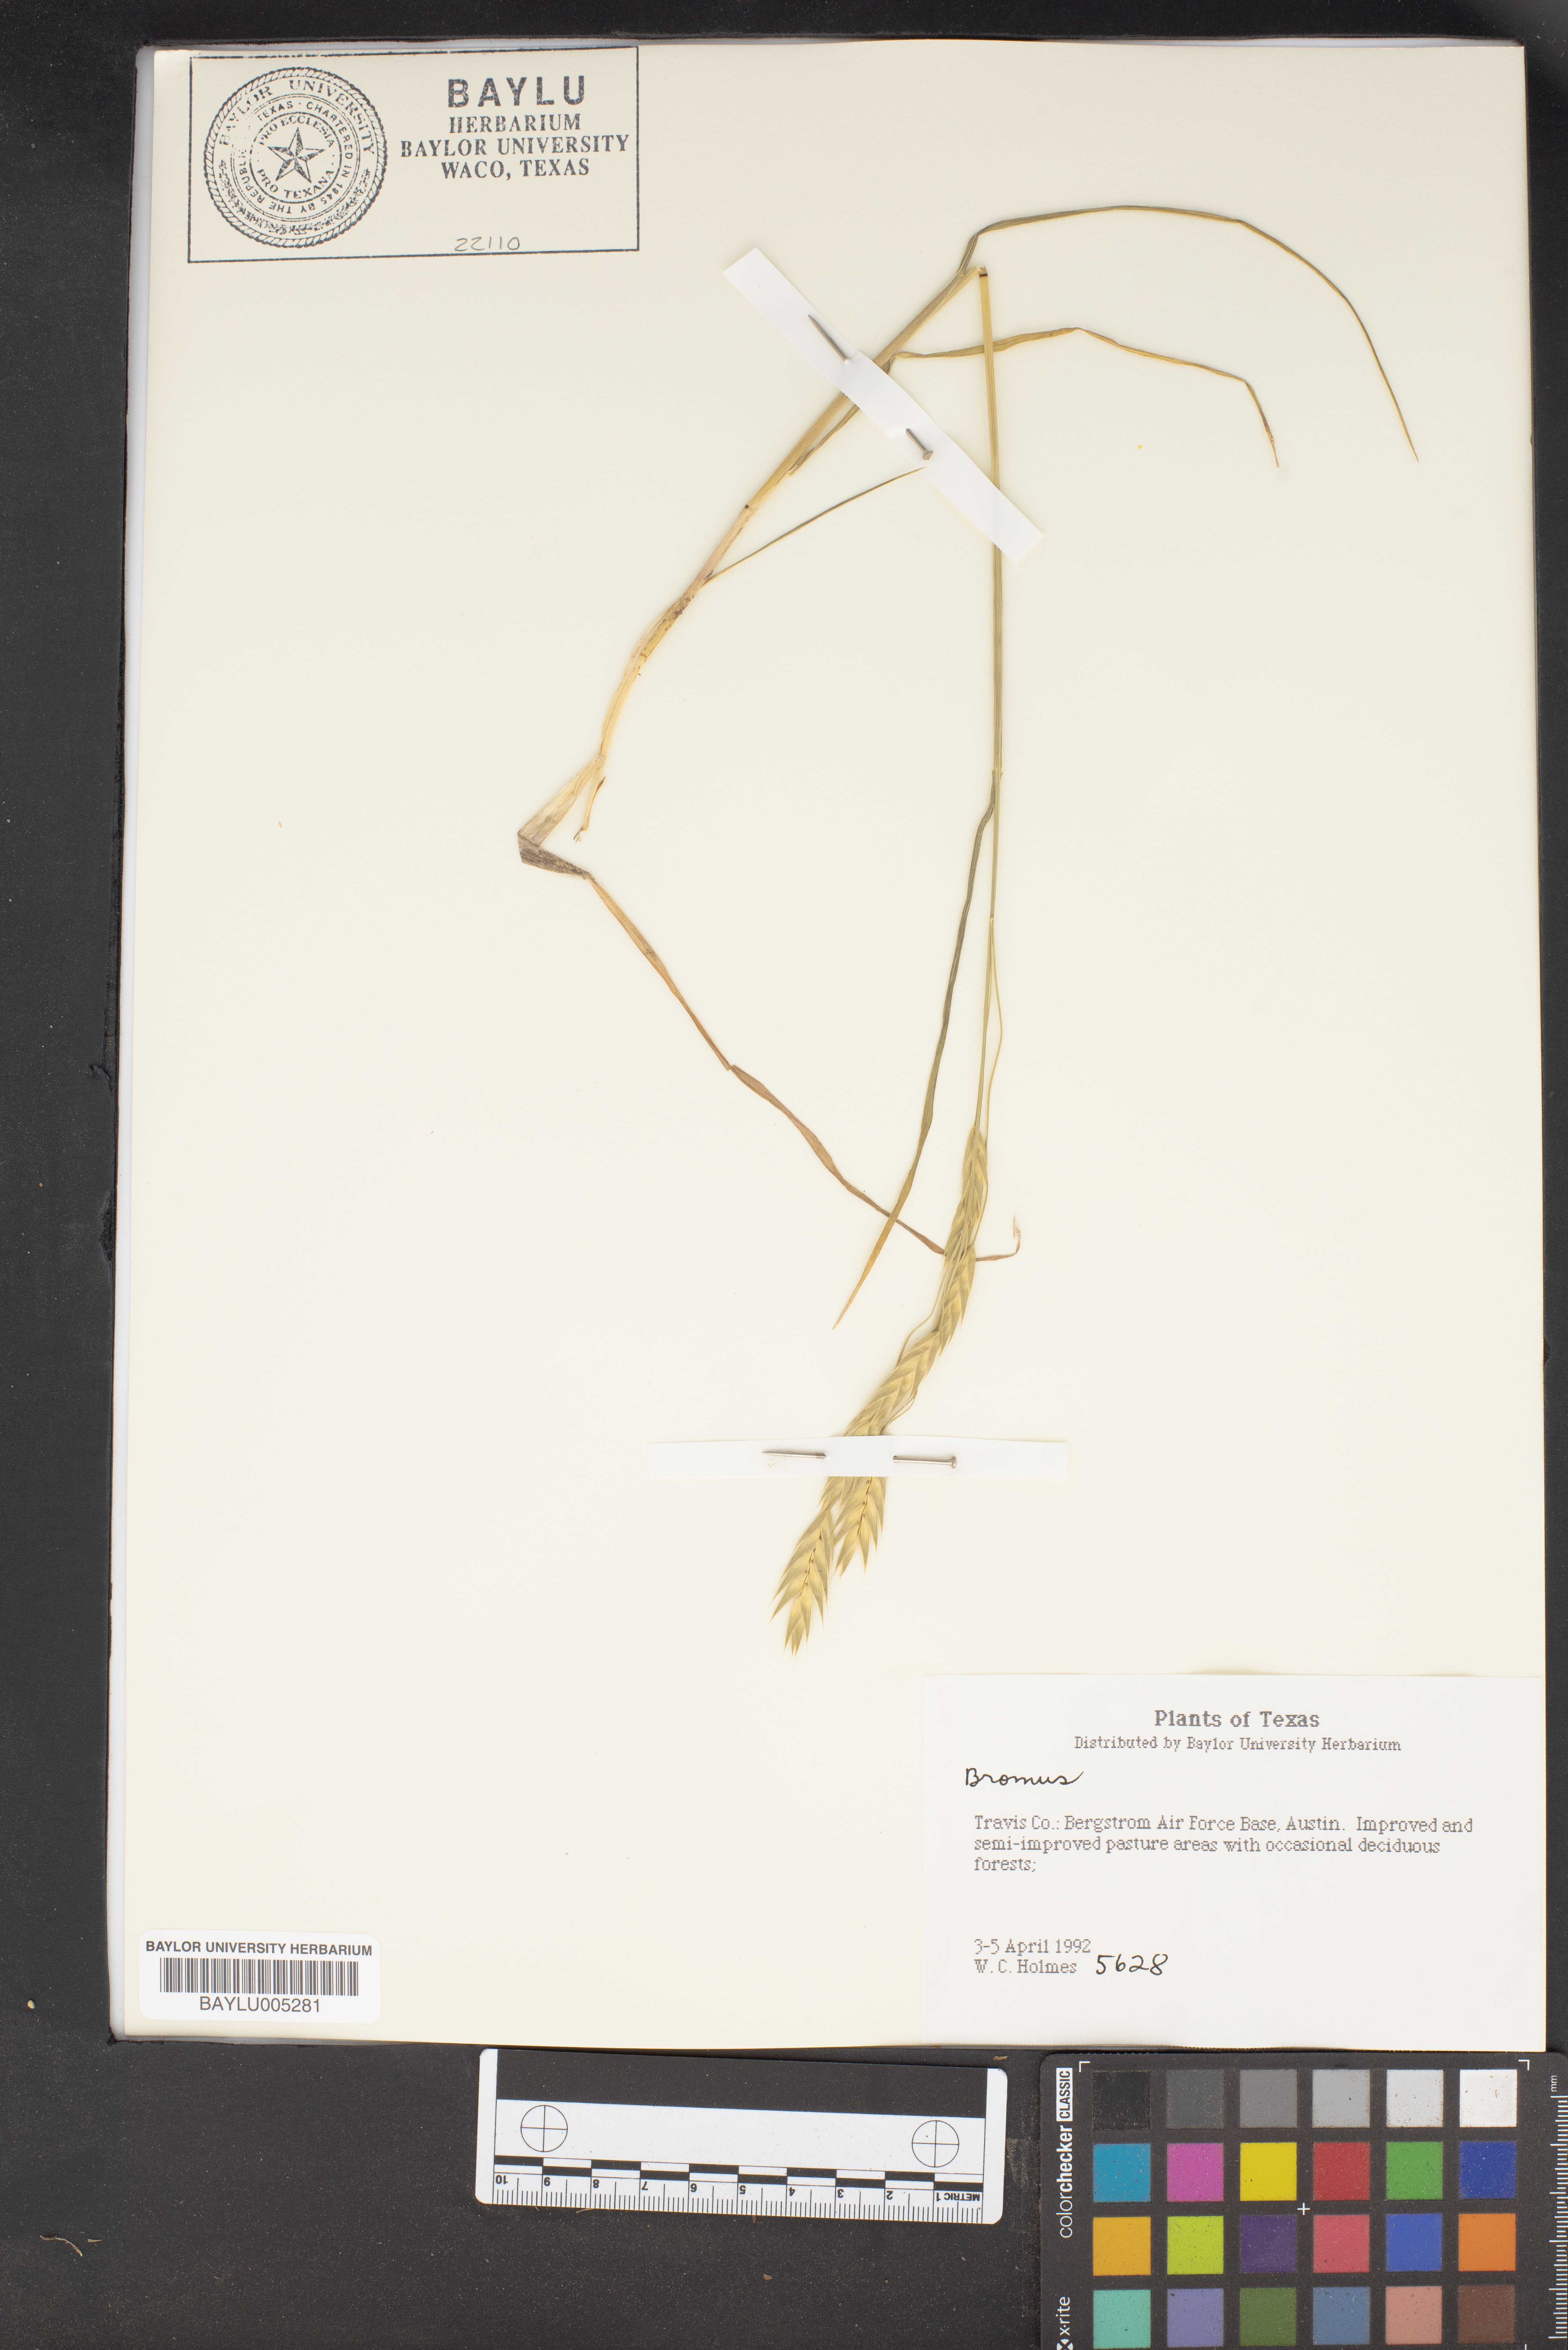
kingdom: Plantae
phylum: Tracheophyta
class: Liliopsida
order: Poales
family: Poaceae
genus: Bromus
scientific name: Bromus
